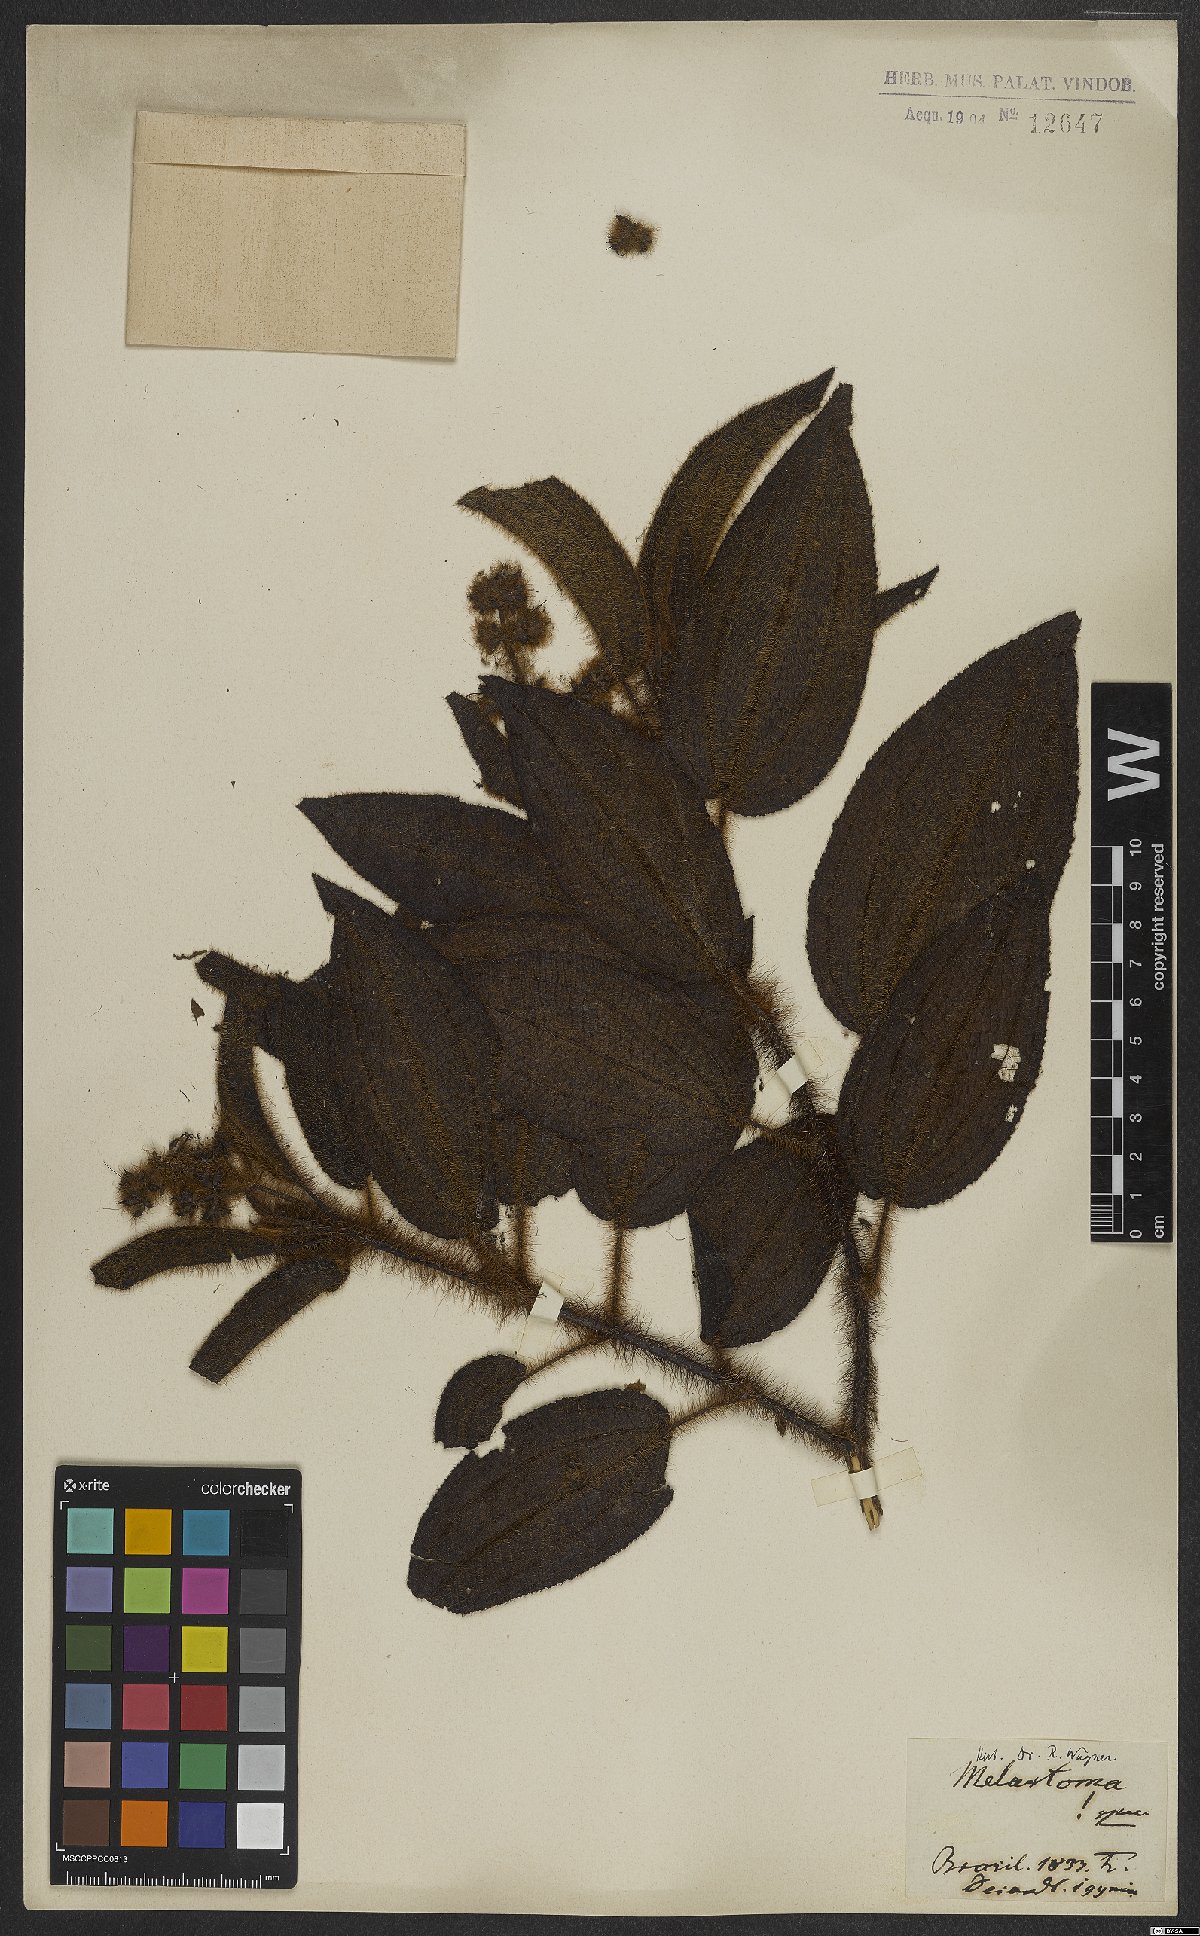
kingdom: Plantae
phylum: Tracheophyta
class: Magnoliopsida
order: Myrtales
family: Melastomataceae
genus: Miconia
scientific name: Miconia australis
